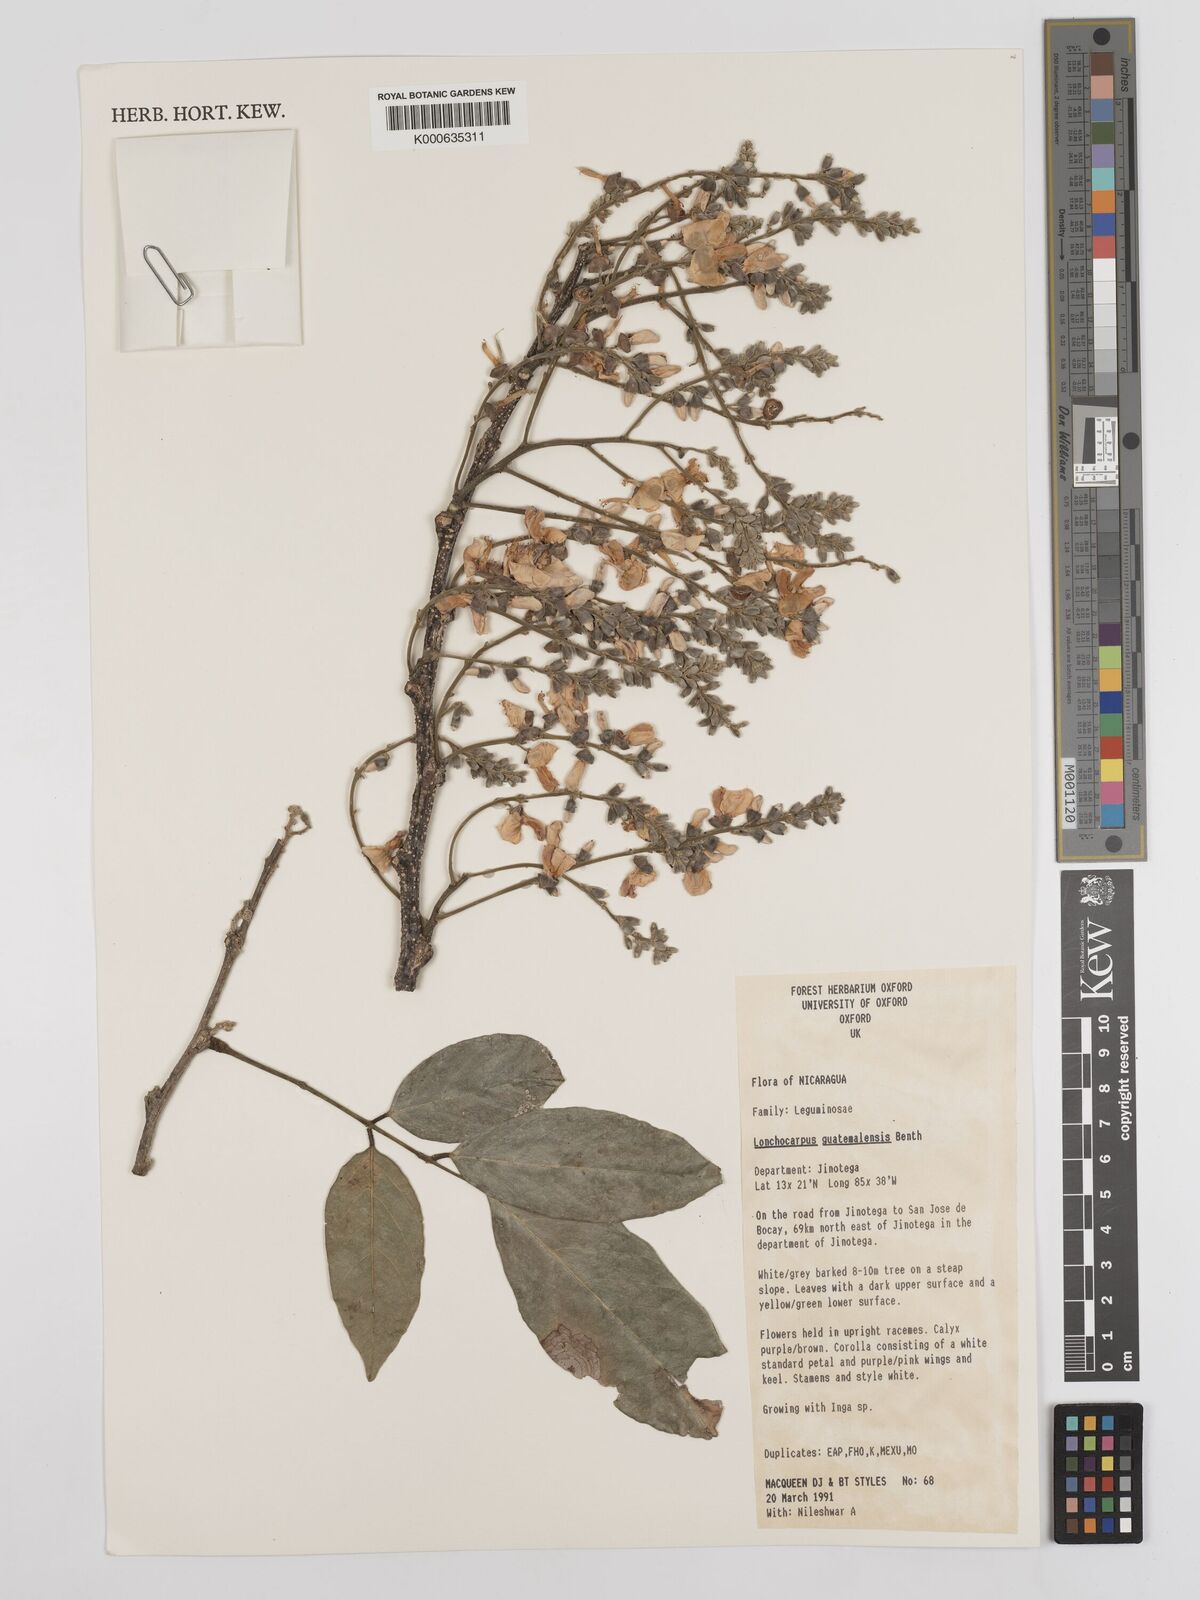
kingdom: Plantae
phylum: Tracheophyta
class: Magnoliopsida
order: Fabales
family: Fabaceae
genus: Lonchocarpus
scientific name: Lonchocarpus guatemalensis
